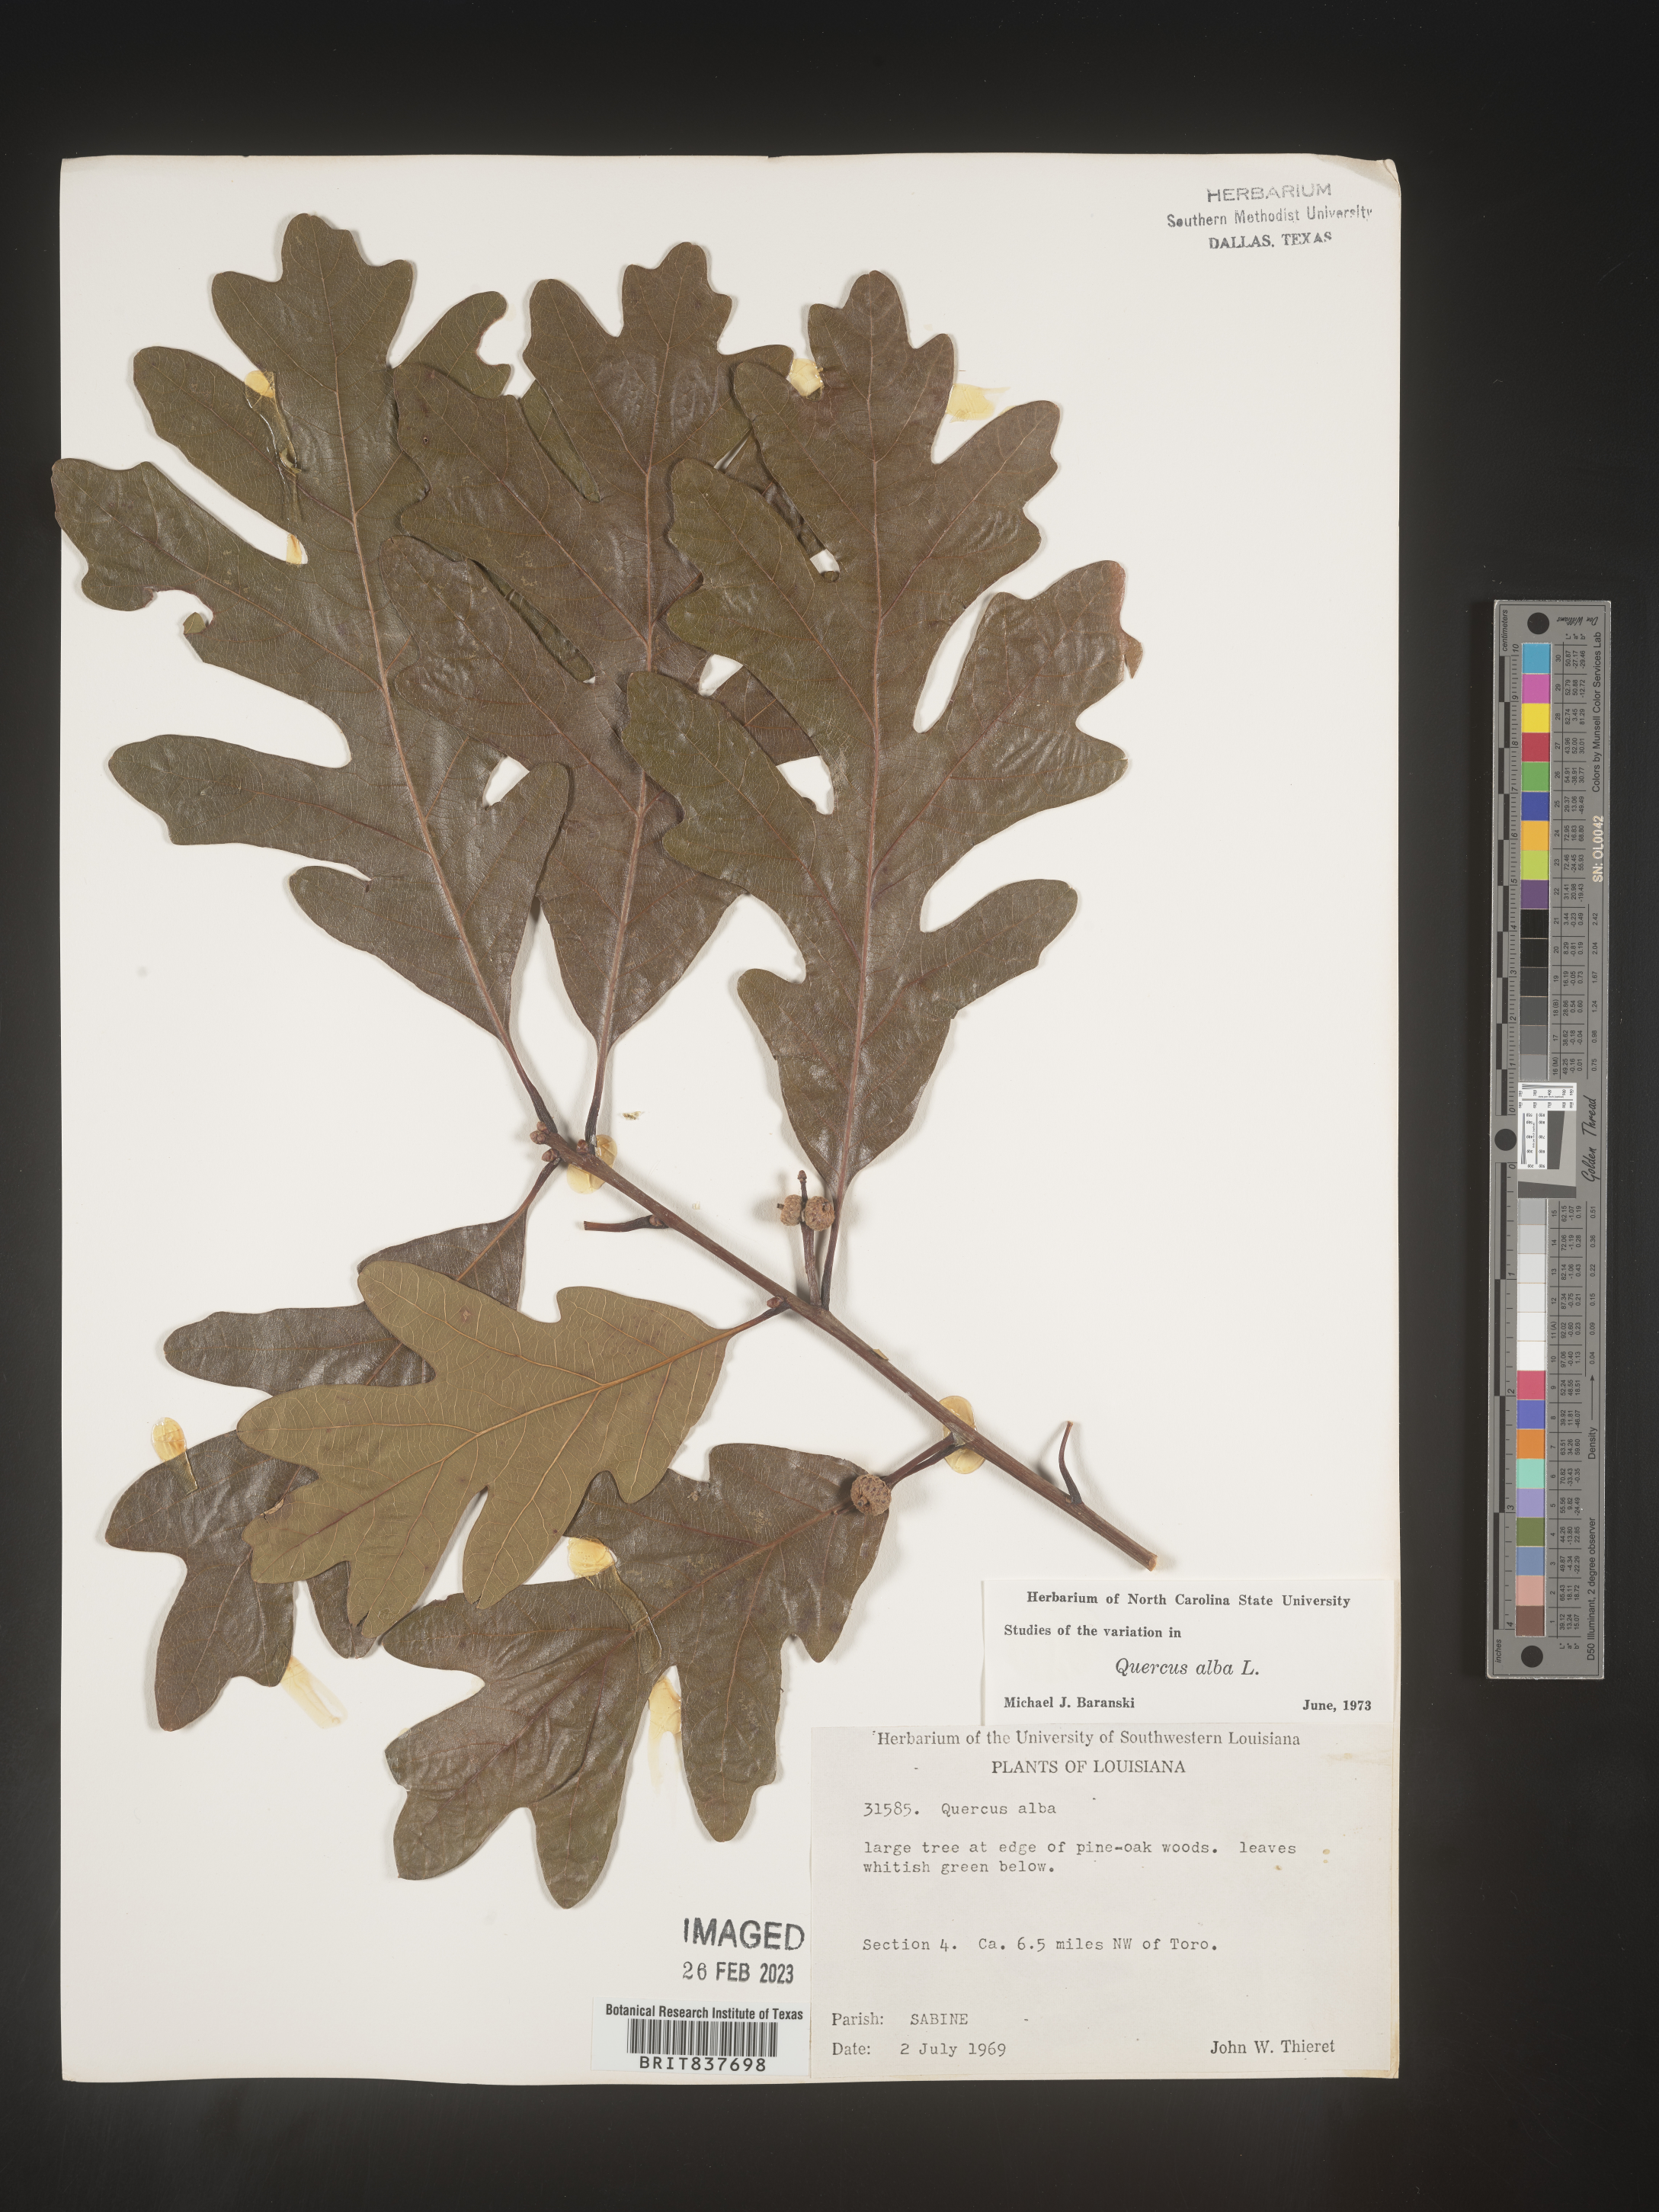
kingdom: Plantae
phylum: Tracheophyta
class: Magnoliopsida
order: Fagales
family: Fagaceae
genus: Quercus
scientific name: Quercus alba
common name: White oak
